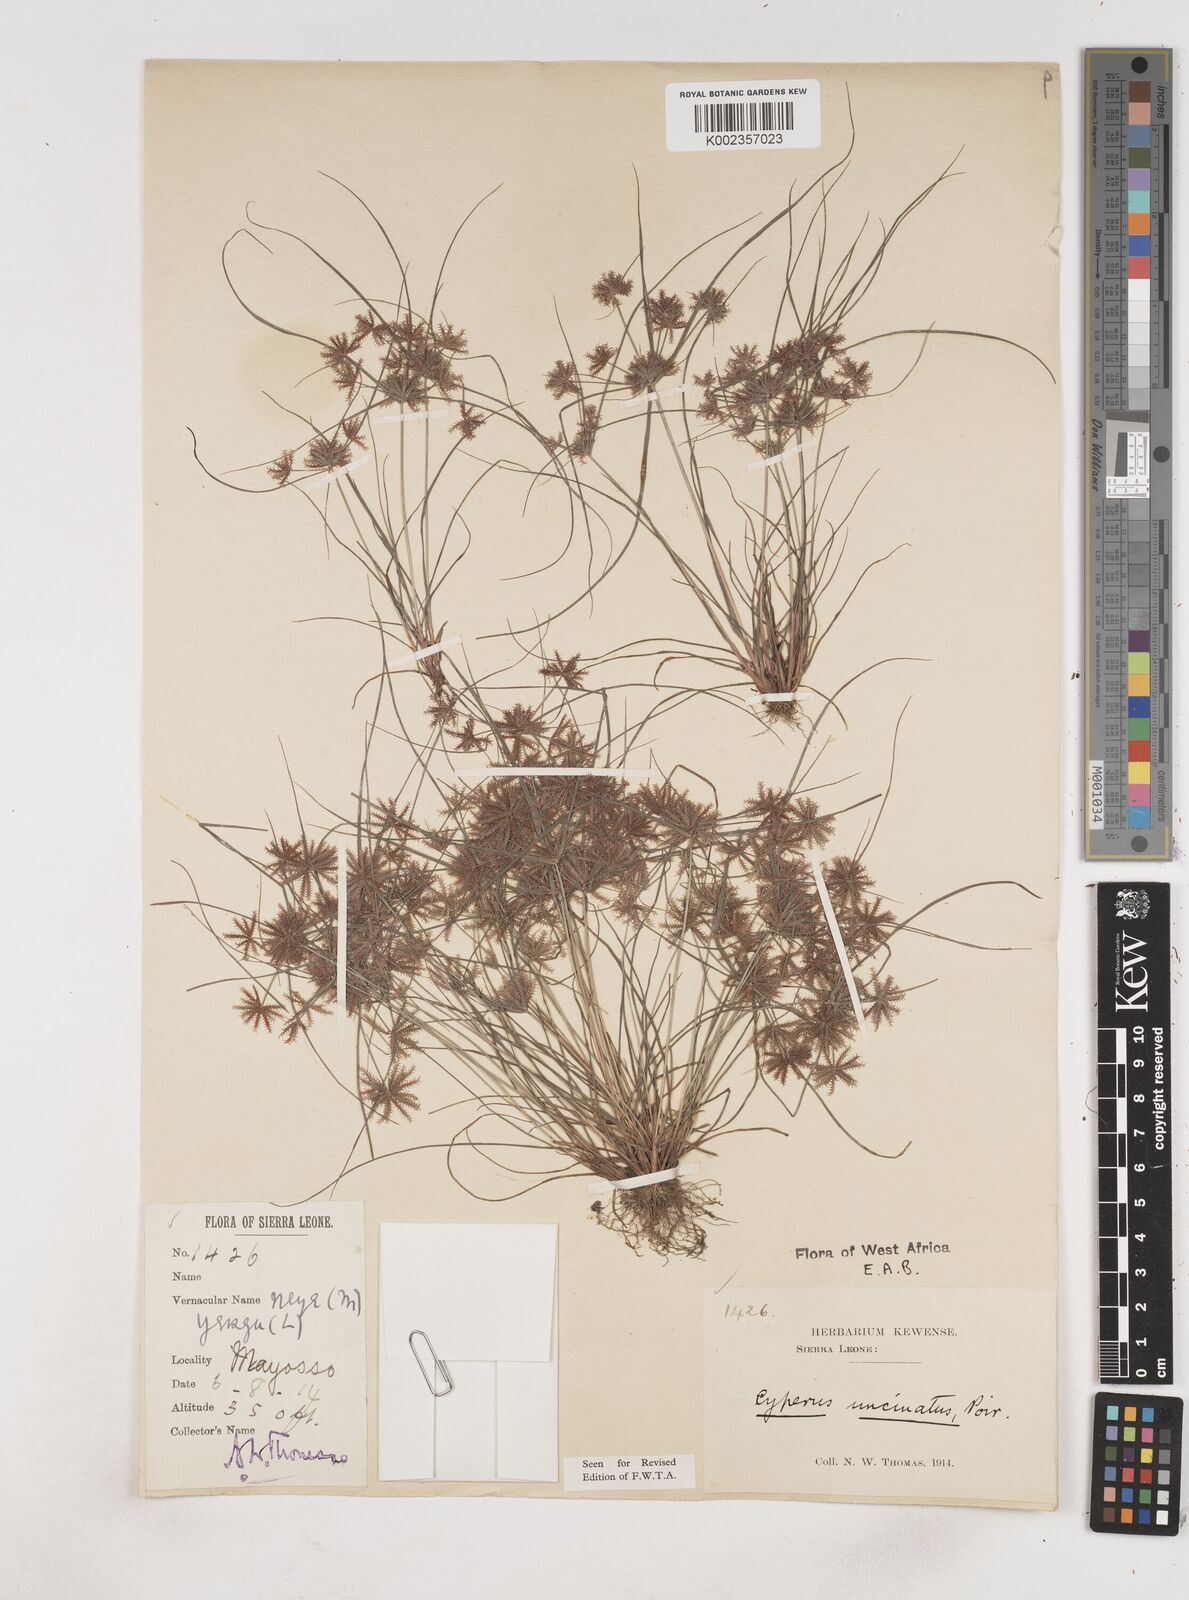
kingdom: Plantae
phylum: Tracheophyta
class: Liliopsida
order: Poales
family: Cyperaceae
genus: Cyperus
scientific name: Cyperus
